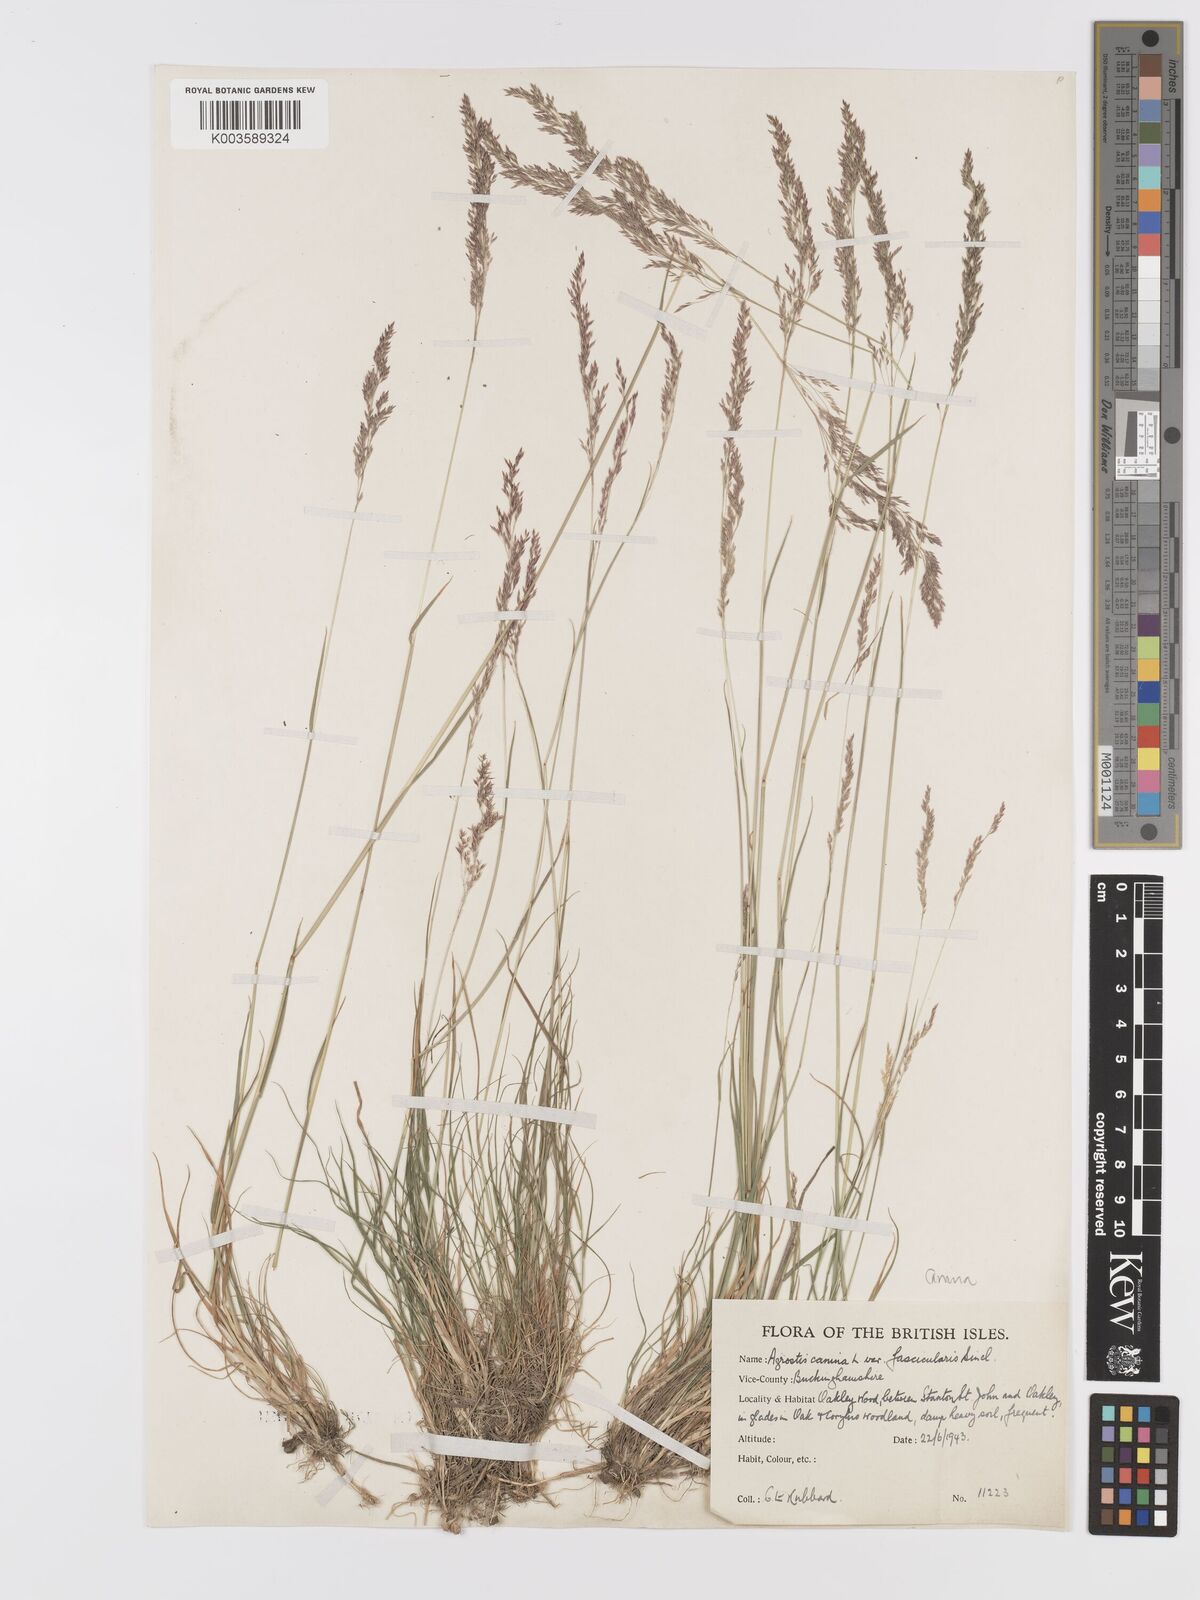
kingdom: Plantae
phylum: Tracheophyta
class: Liliopsida
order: Poales
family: Poaceae
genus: Agrostis
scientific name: Agrostis canina
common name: Velvet bent
